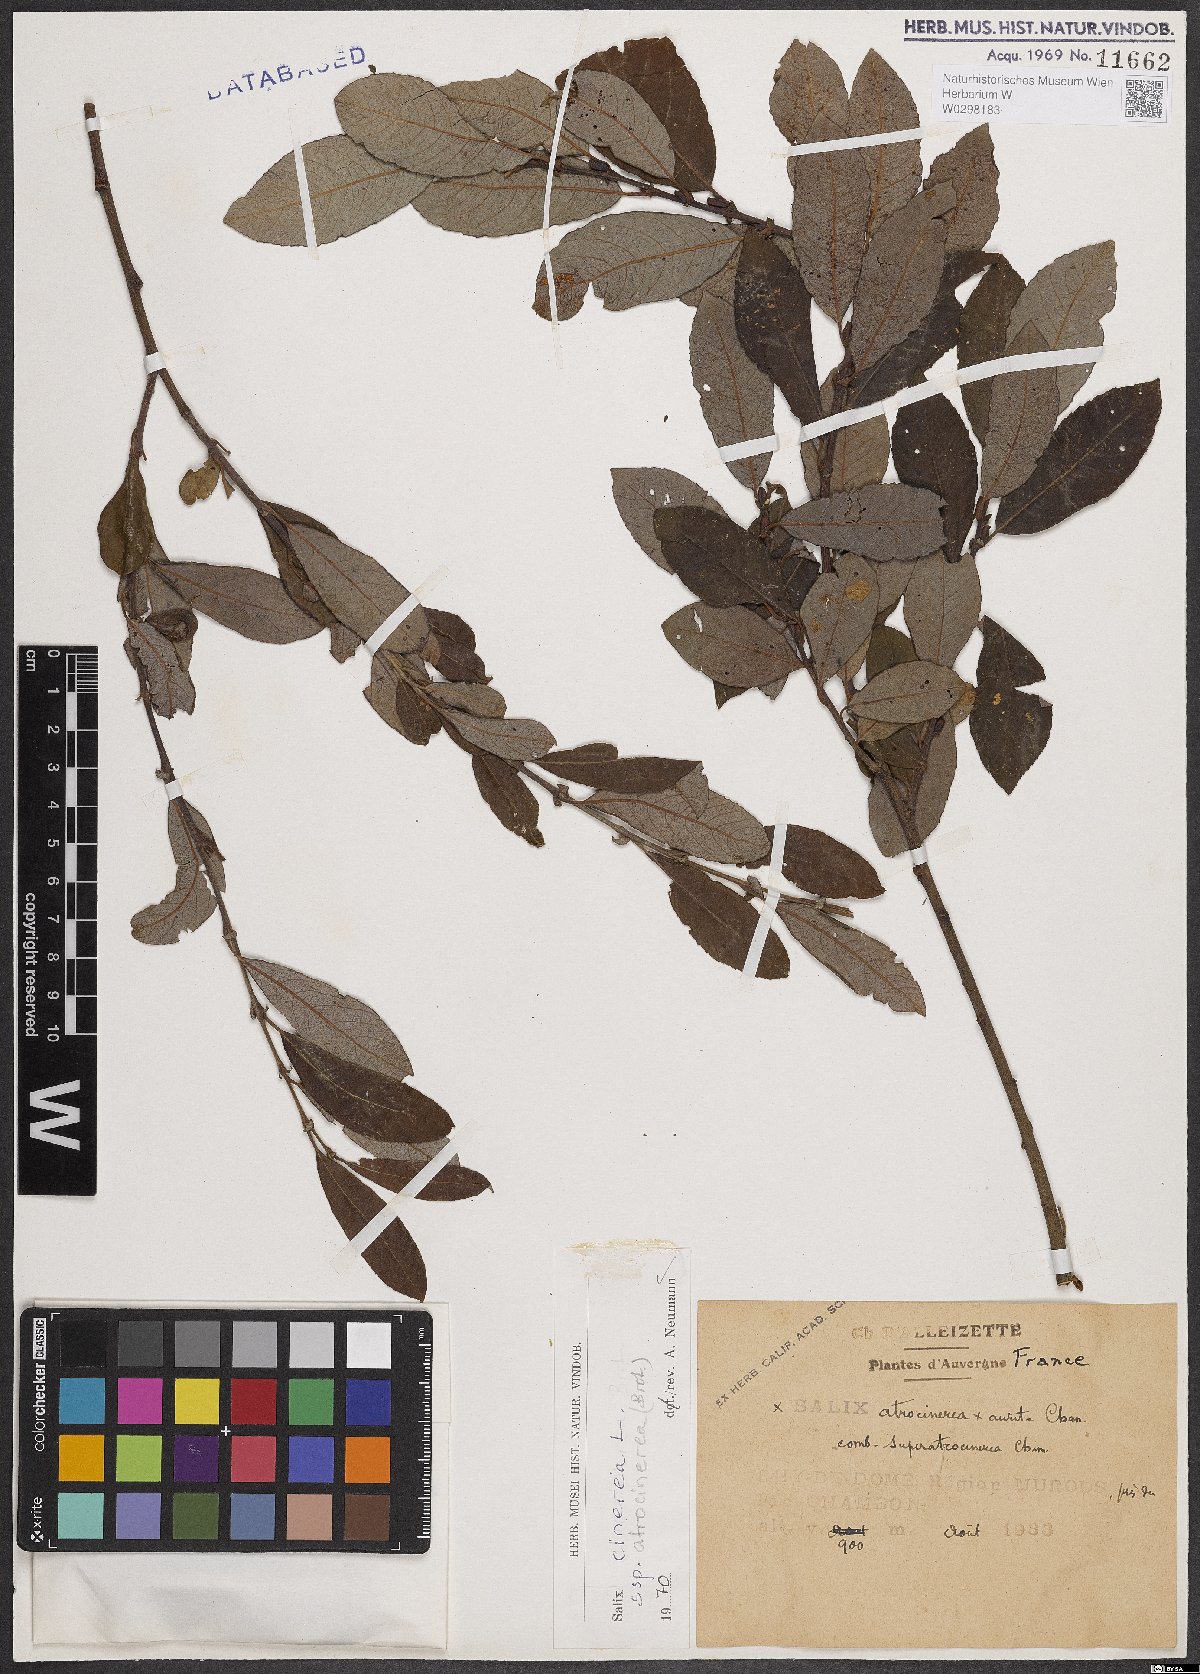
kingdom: Plantae
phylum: Tracheophyta
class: Magnoliopsida
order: Malpighiales
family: Salicaceae
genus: Salix
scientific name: Salix atrocinerea
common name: Rusty willow
